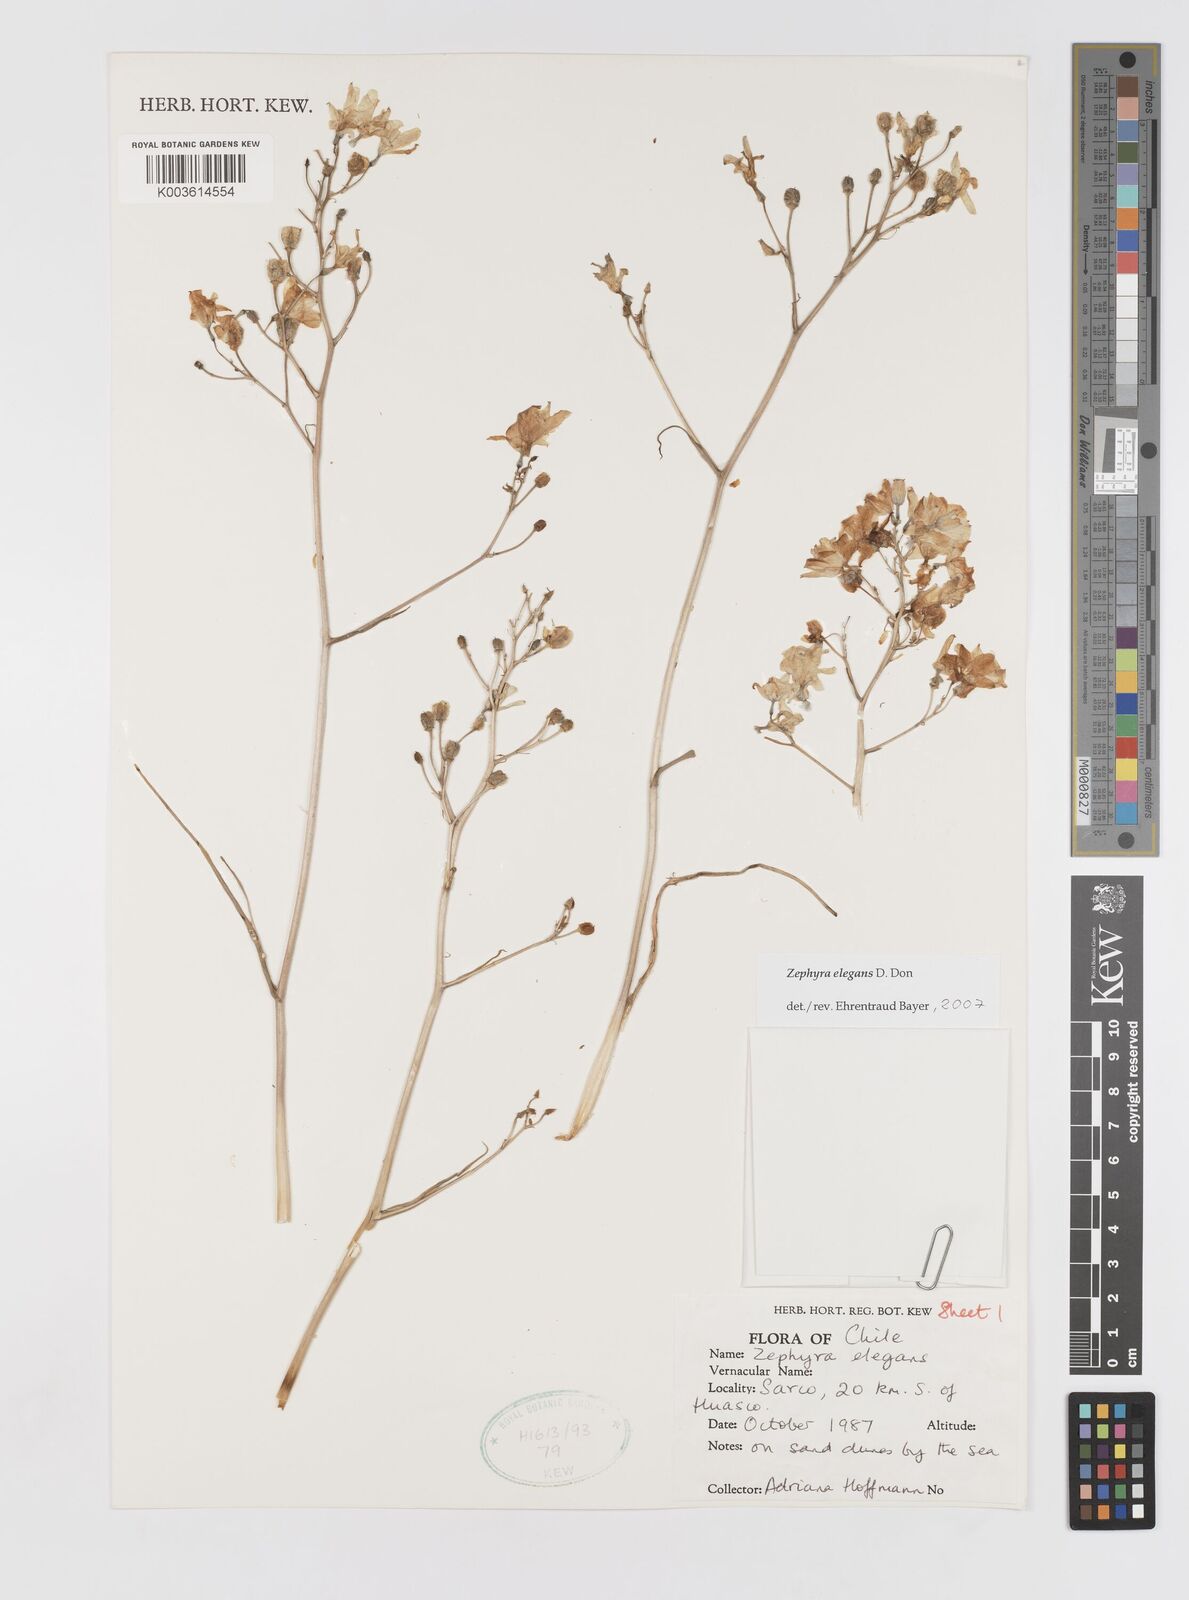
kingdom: Plantae
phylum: Tracheophyta
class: Liliopsida
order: Asparagales
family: Tecophilaeaceae
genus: Zephyra
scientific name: Zephyra elegans
